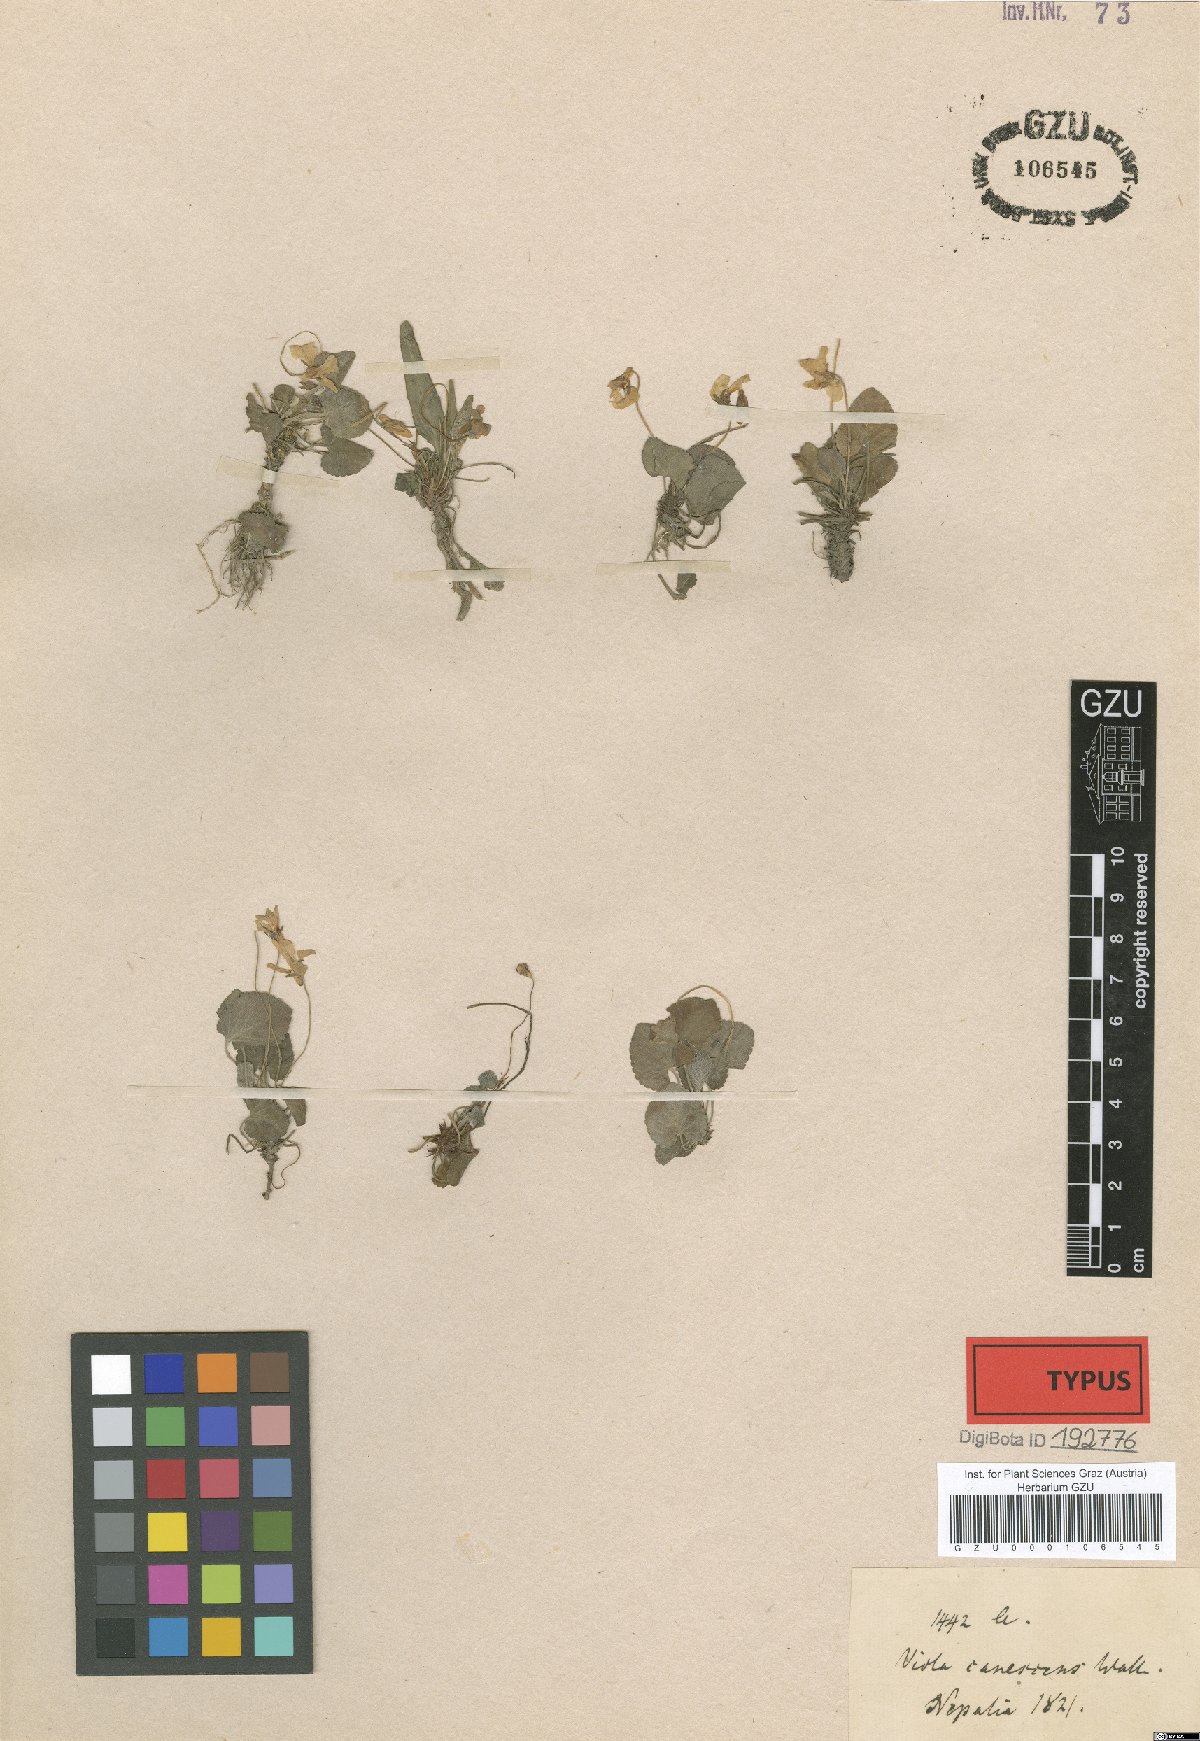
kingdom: Plantae
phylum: Tracheophyta
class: Magnoliopsida
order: Malpighiales
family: Violaceae
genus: Viola
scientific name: Viola canescens
